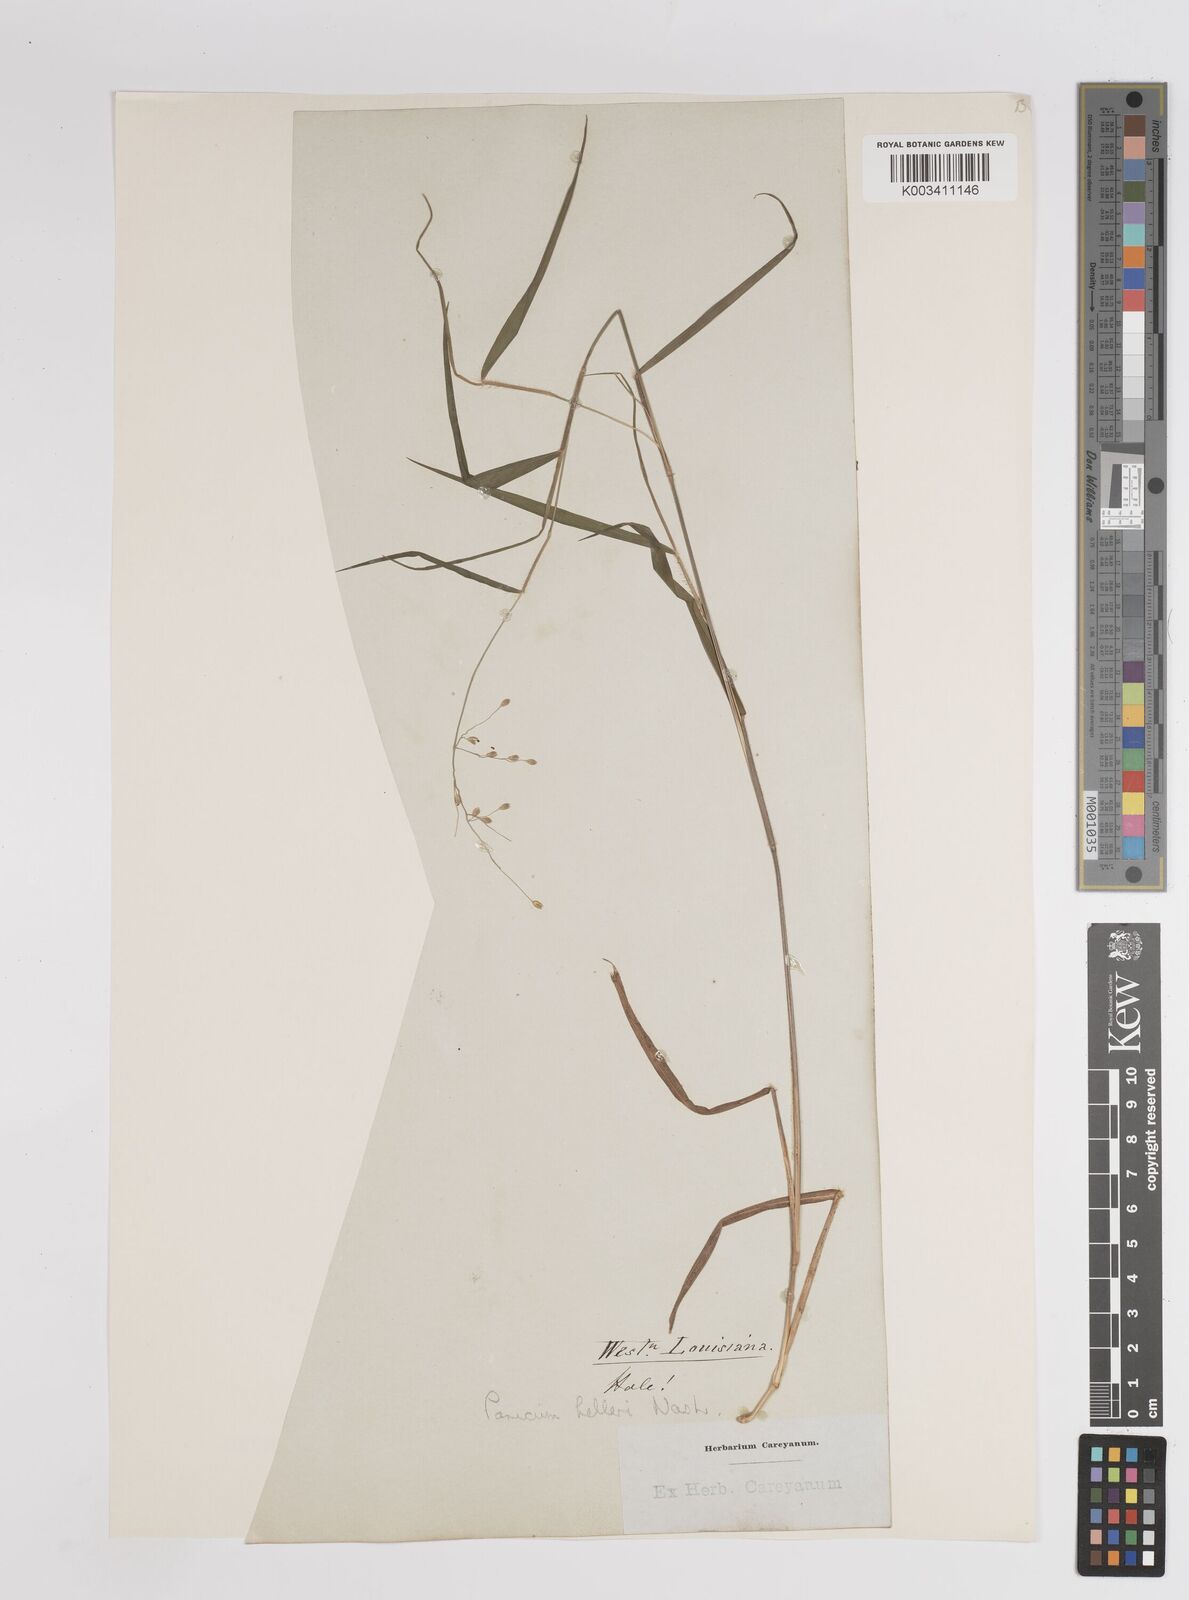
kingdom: Plantae
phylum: Tracheophyta
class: Liliopsida
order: Poales
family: Poaceae
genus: Dichanthelium
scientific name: Dichanthelium oligosanthes
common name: Few-anther obscuregrass
